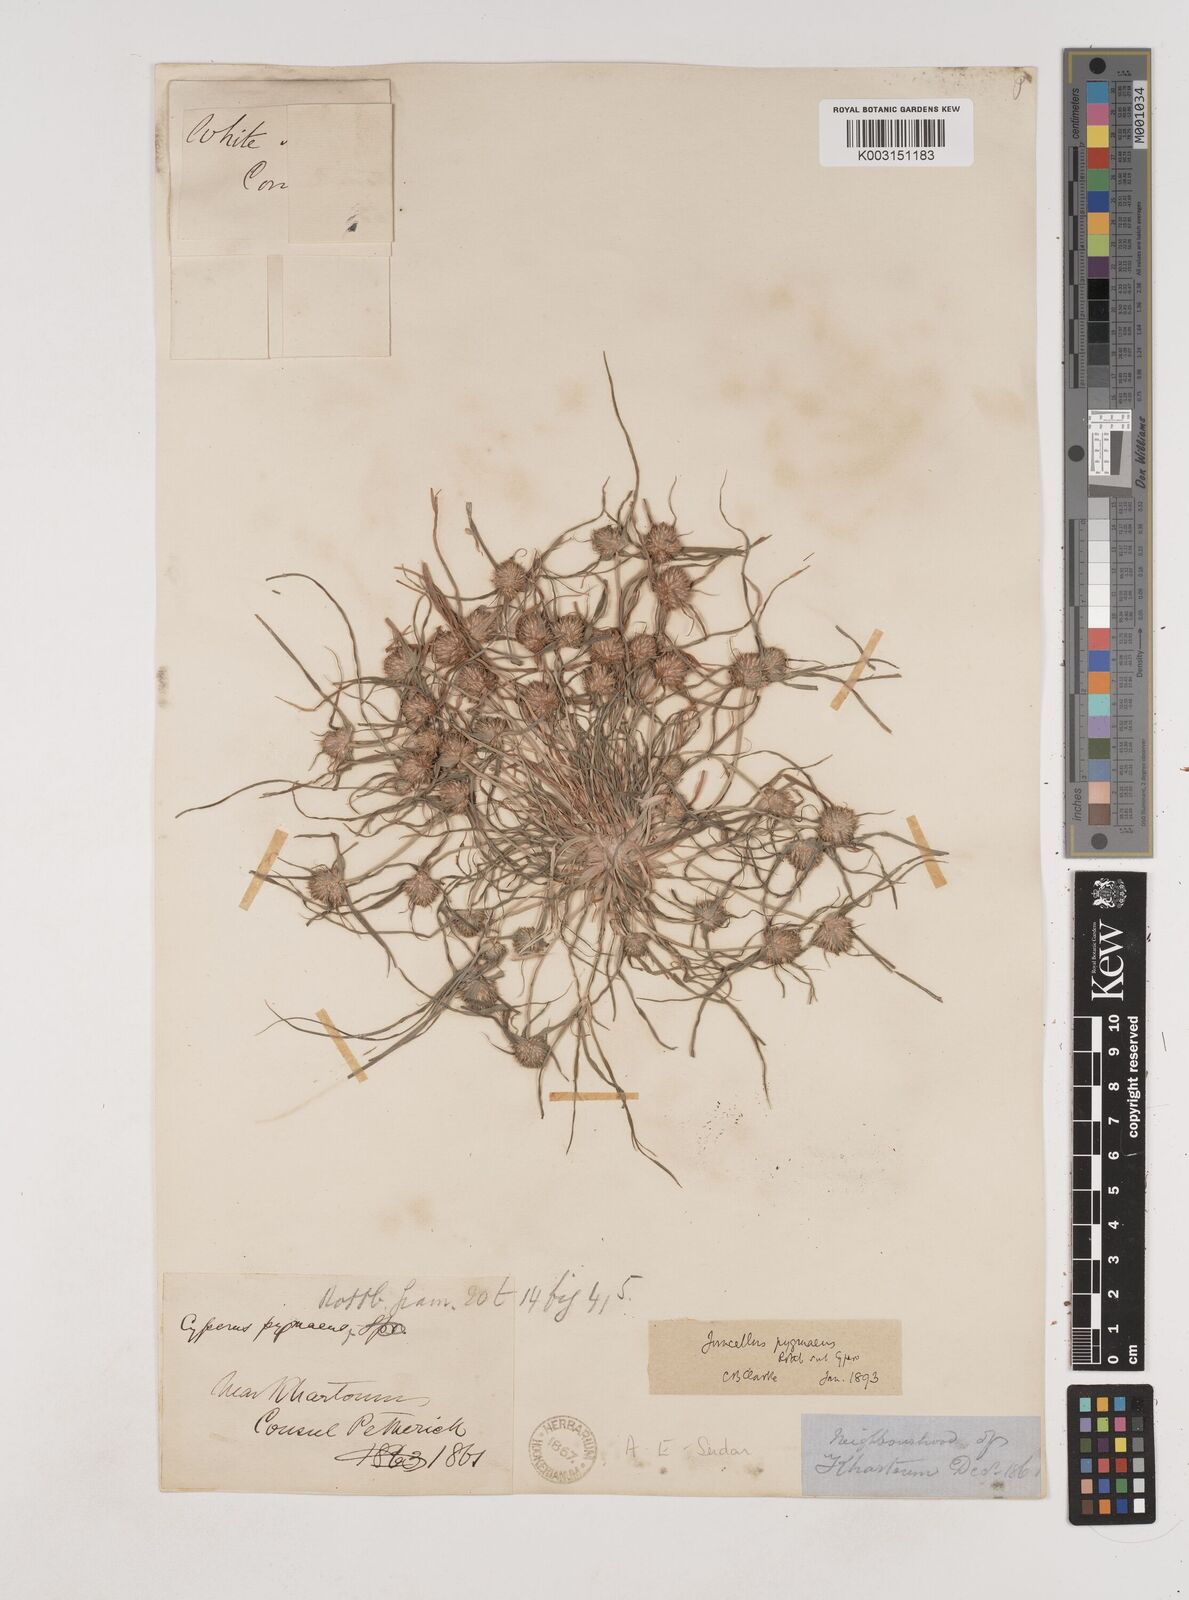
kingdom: Plantae
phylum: Tracheophyta
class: Liliopsida
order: Poales
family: Cyperaceae
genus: Cyperus
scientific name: Cyperus michelianus
